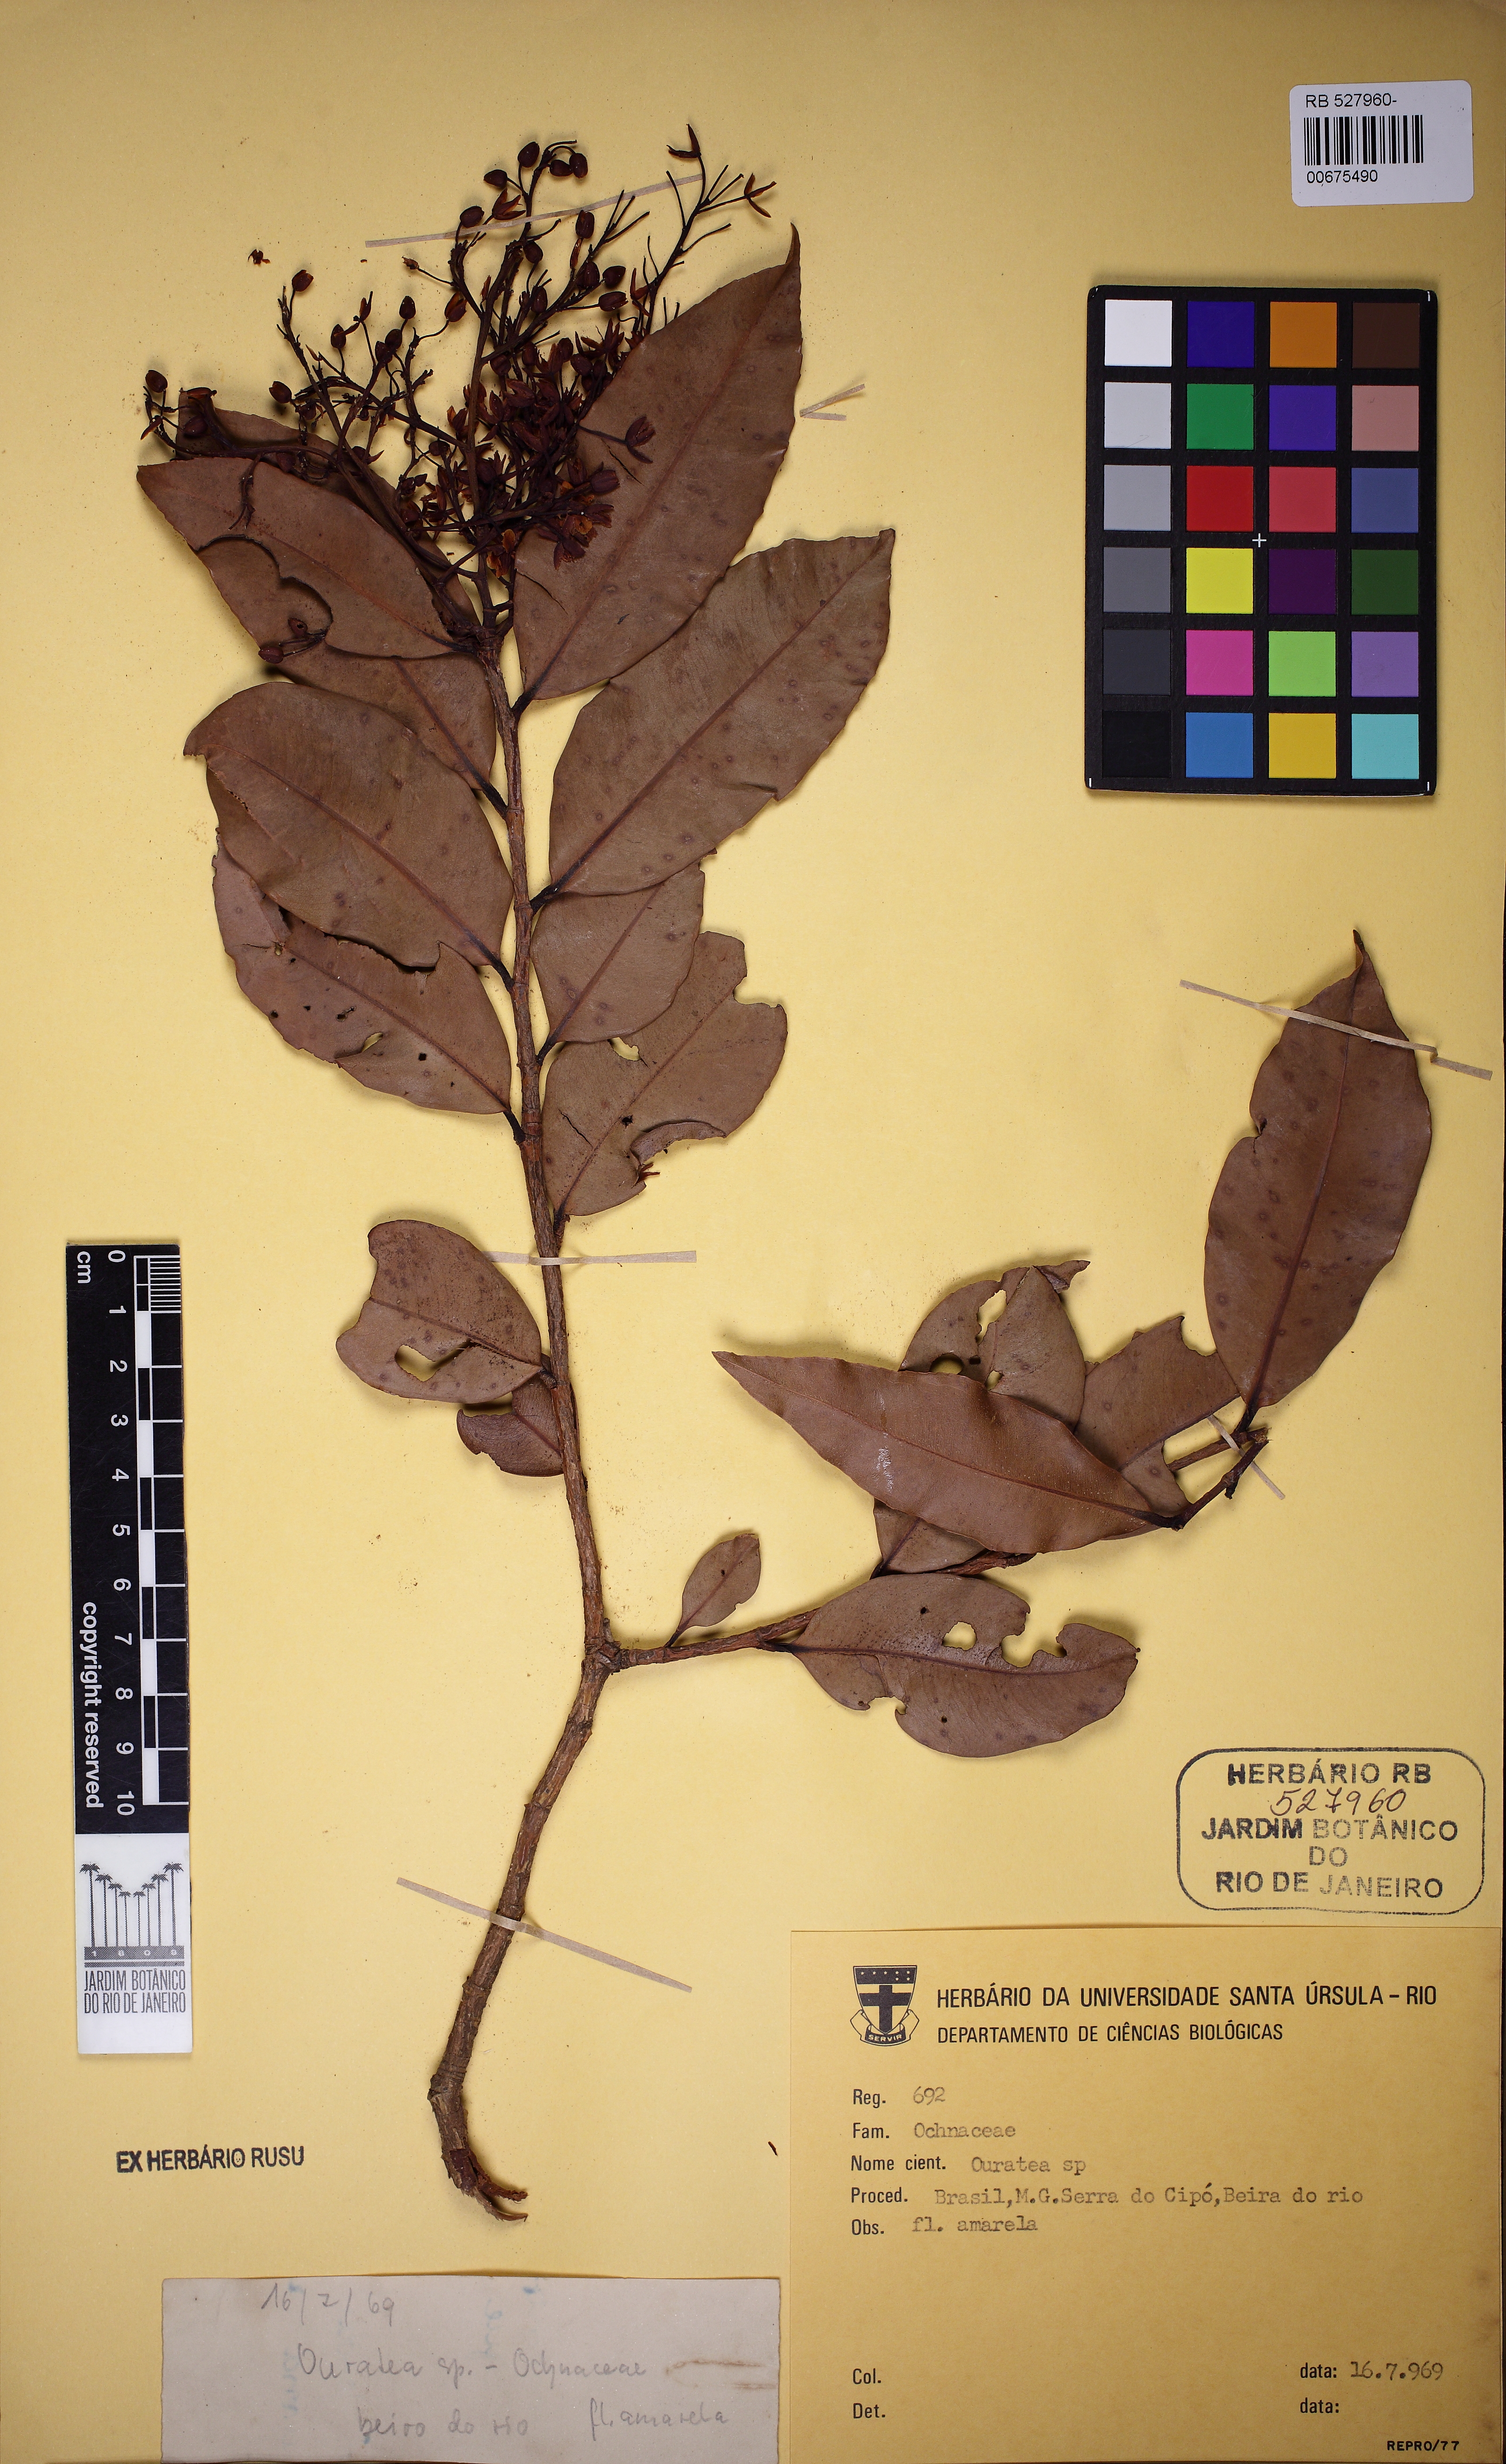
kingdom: Plantae
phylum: Tracheophyta
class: Magnoliopsida
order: Malpighiales
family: Ochnaceae
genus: Ouratea
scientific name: Ouratea
